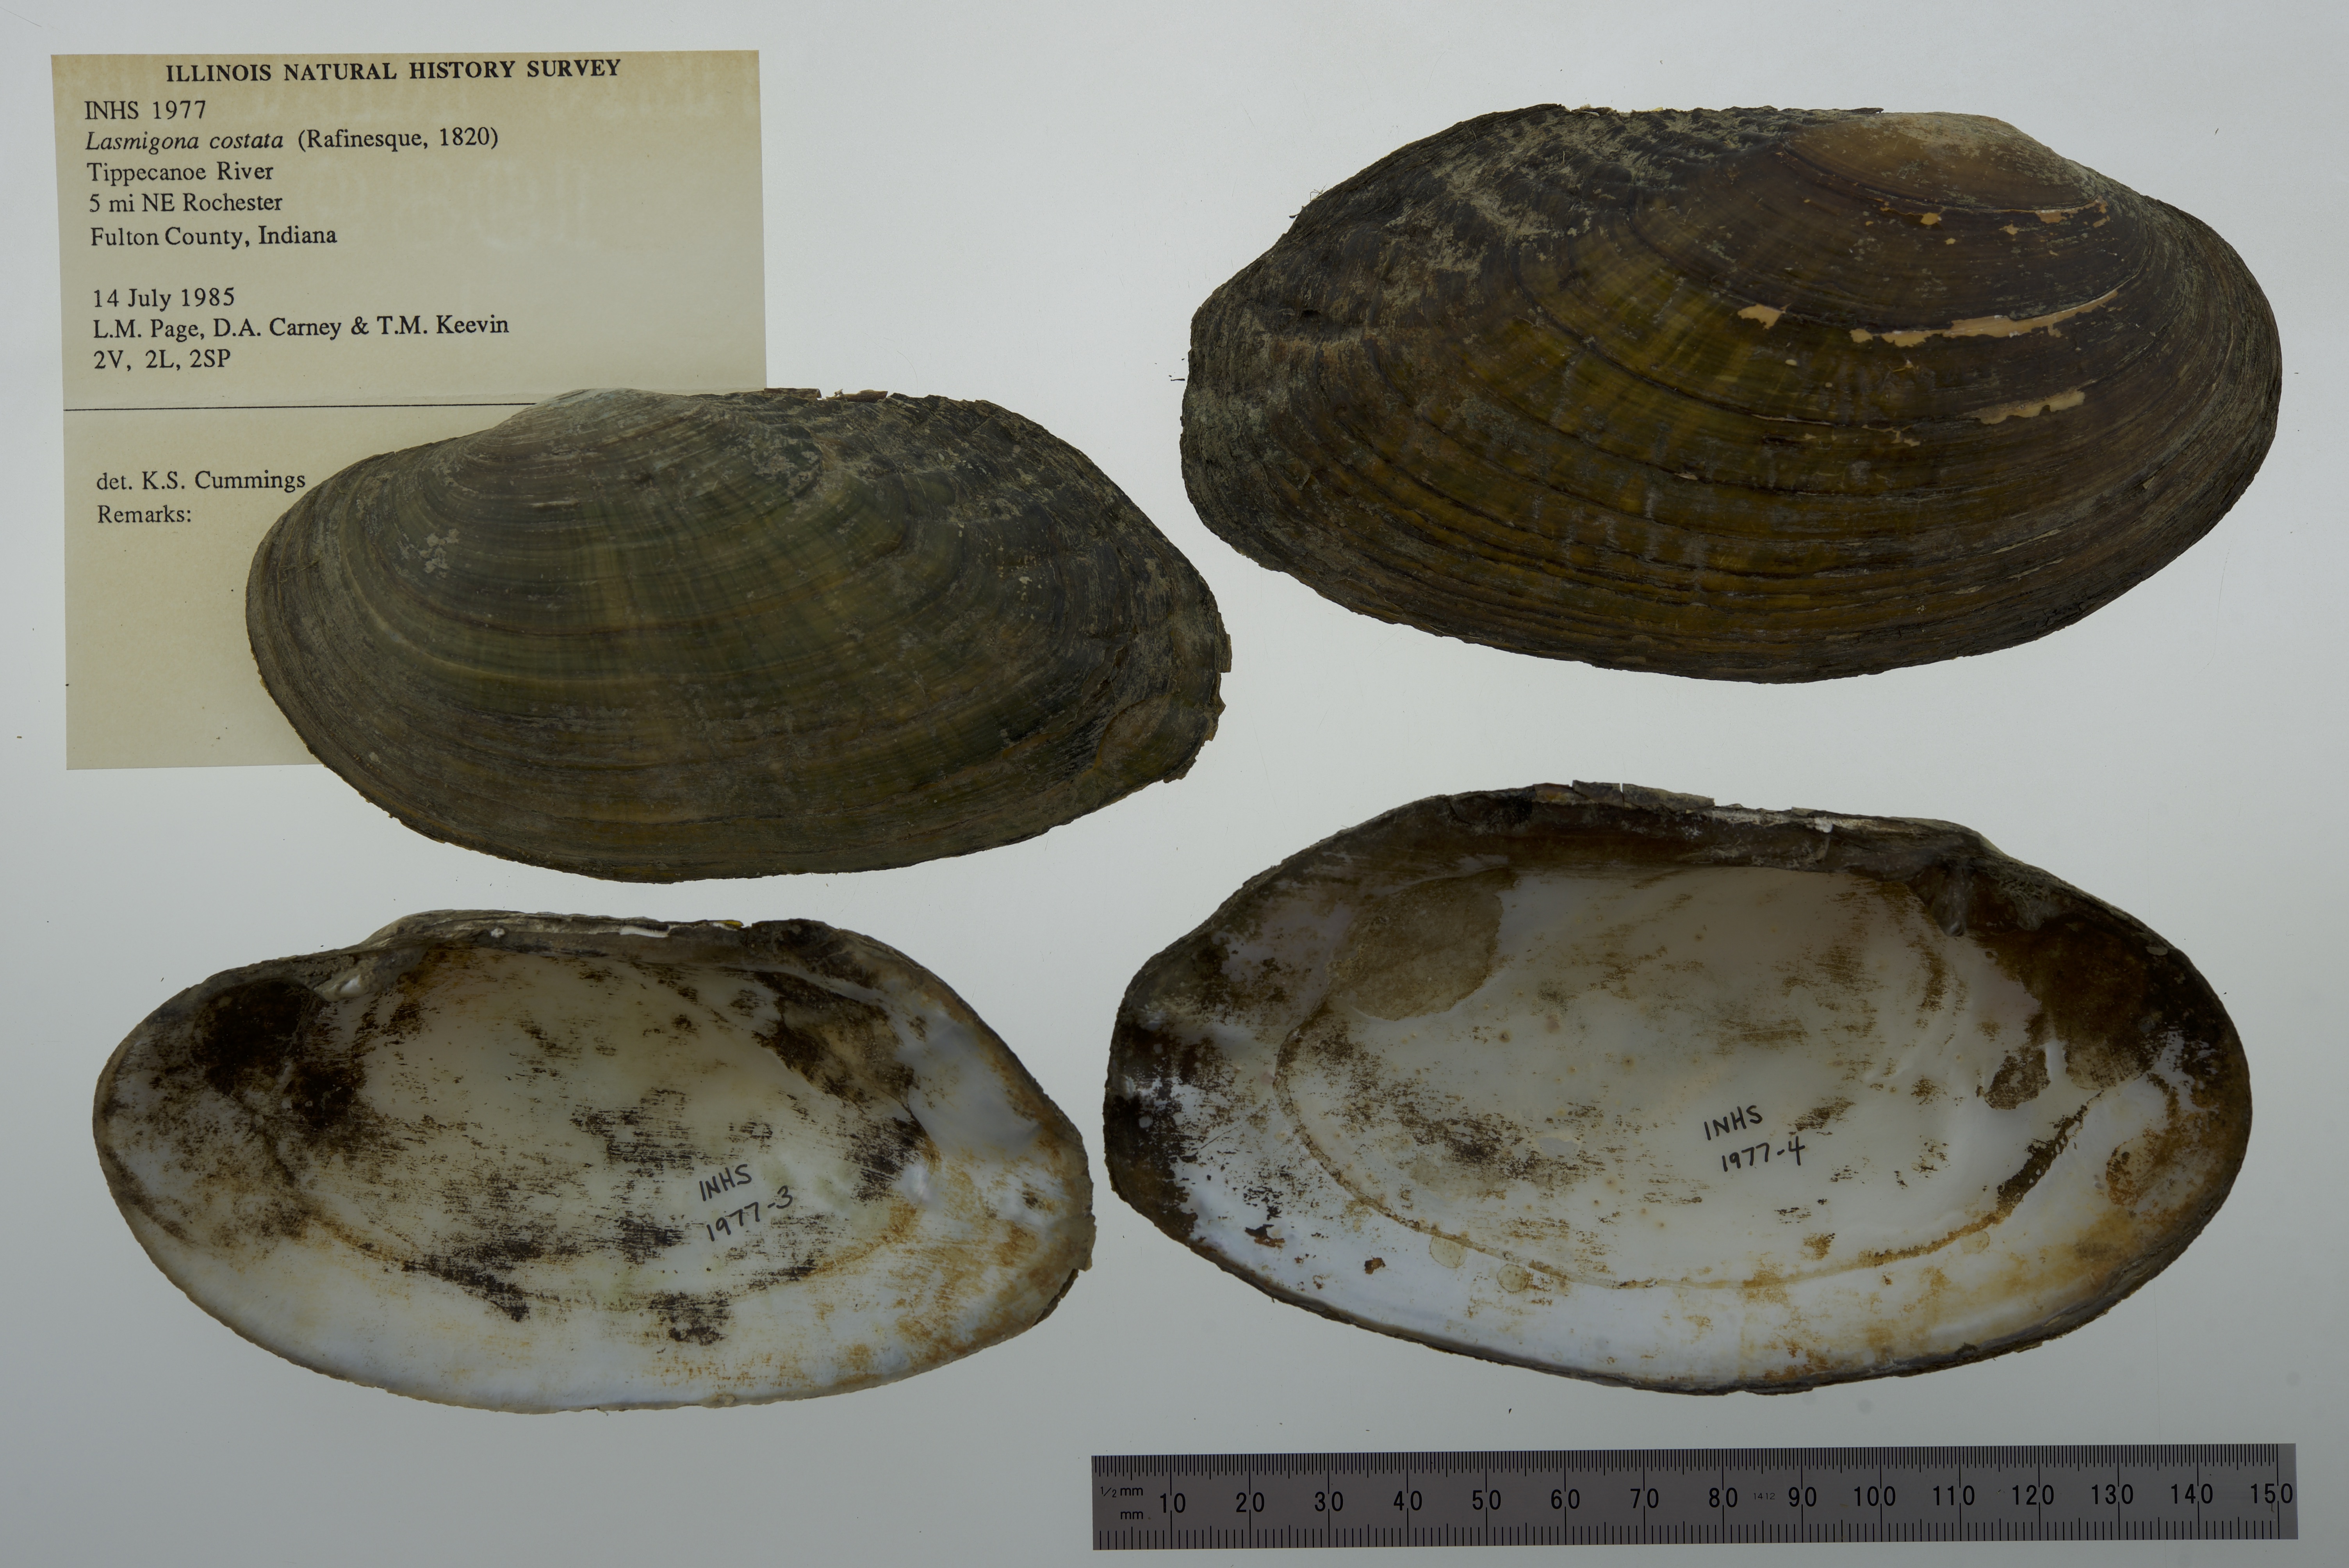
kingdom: Animalia
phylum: Mollusca
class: Bivalvia
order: Unionida
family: Unionidae
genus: Lasmigona
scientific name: Lasmigona costata
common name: Flutedshell
